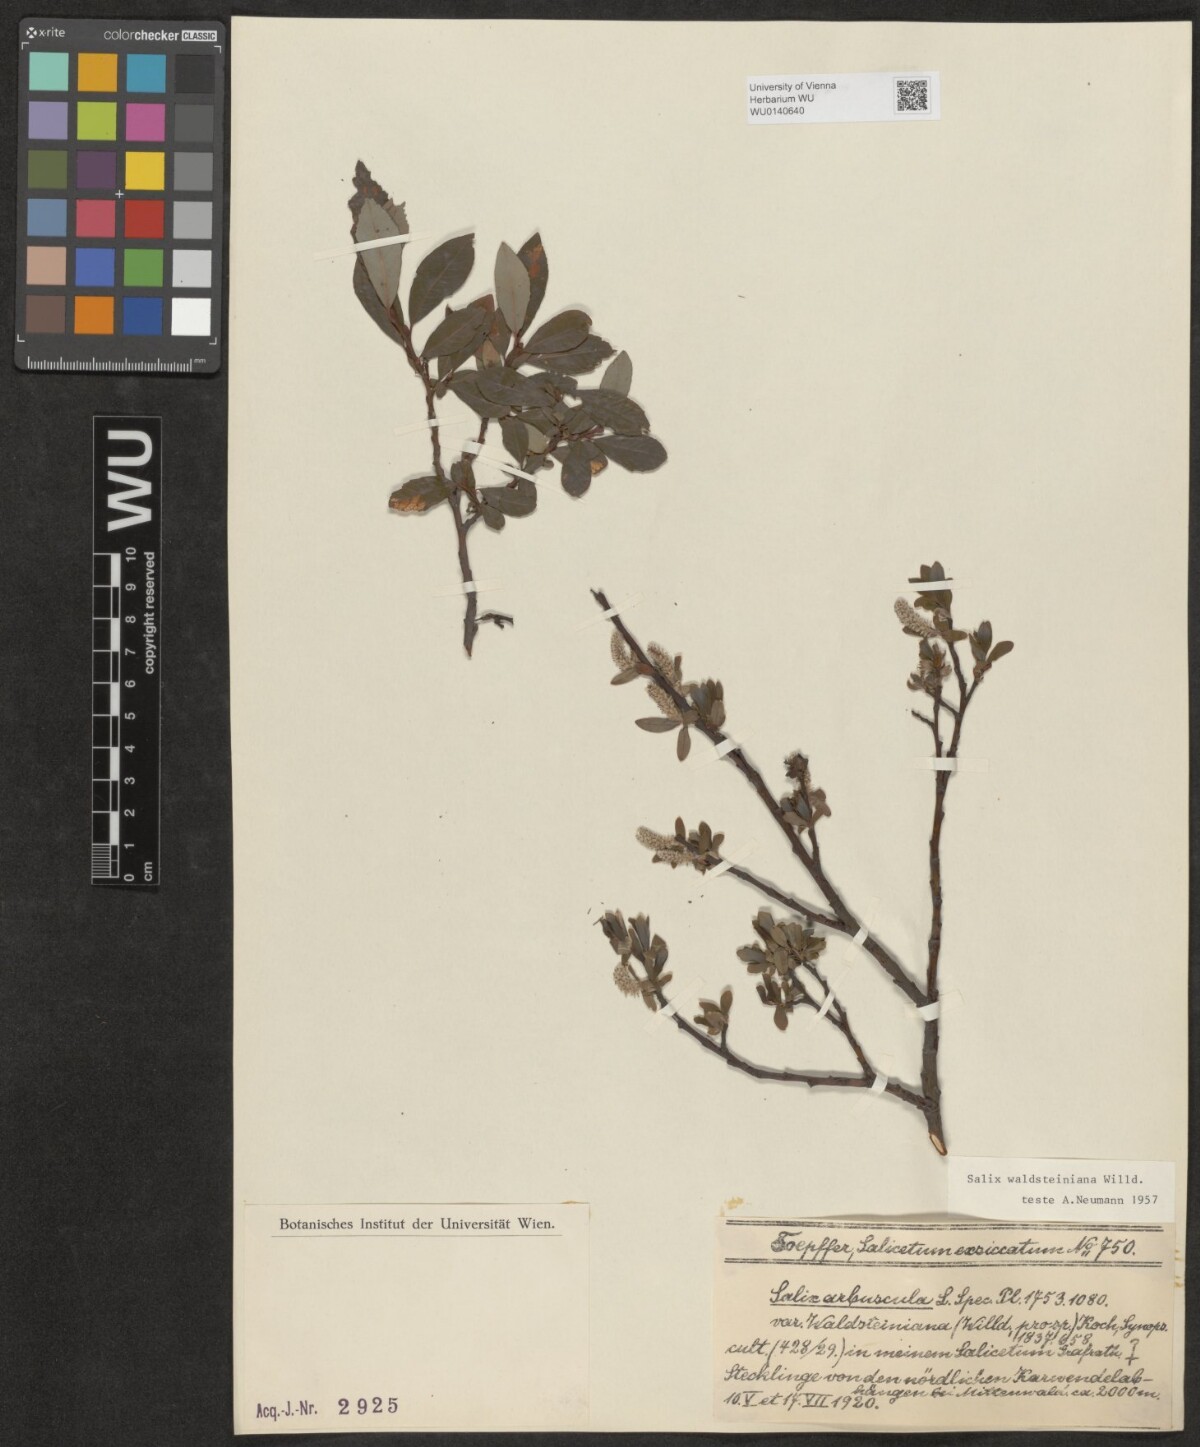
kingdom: Plantae
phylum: Tracheophyta
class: Magnoliopsida
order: Malpighiales
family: Salicaceae
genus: Salix
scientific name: Salix waldsteiniana
